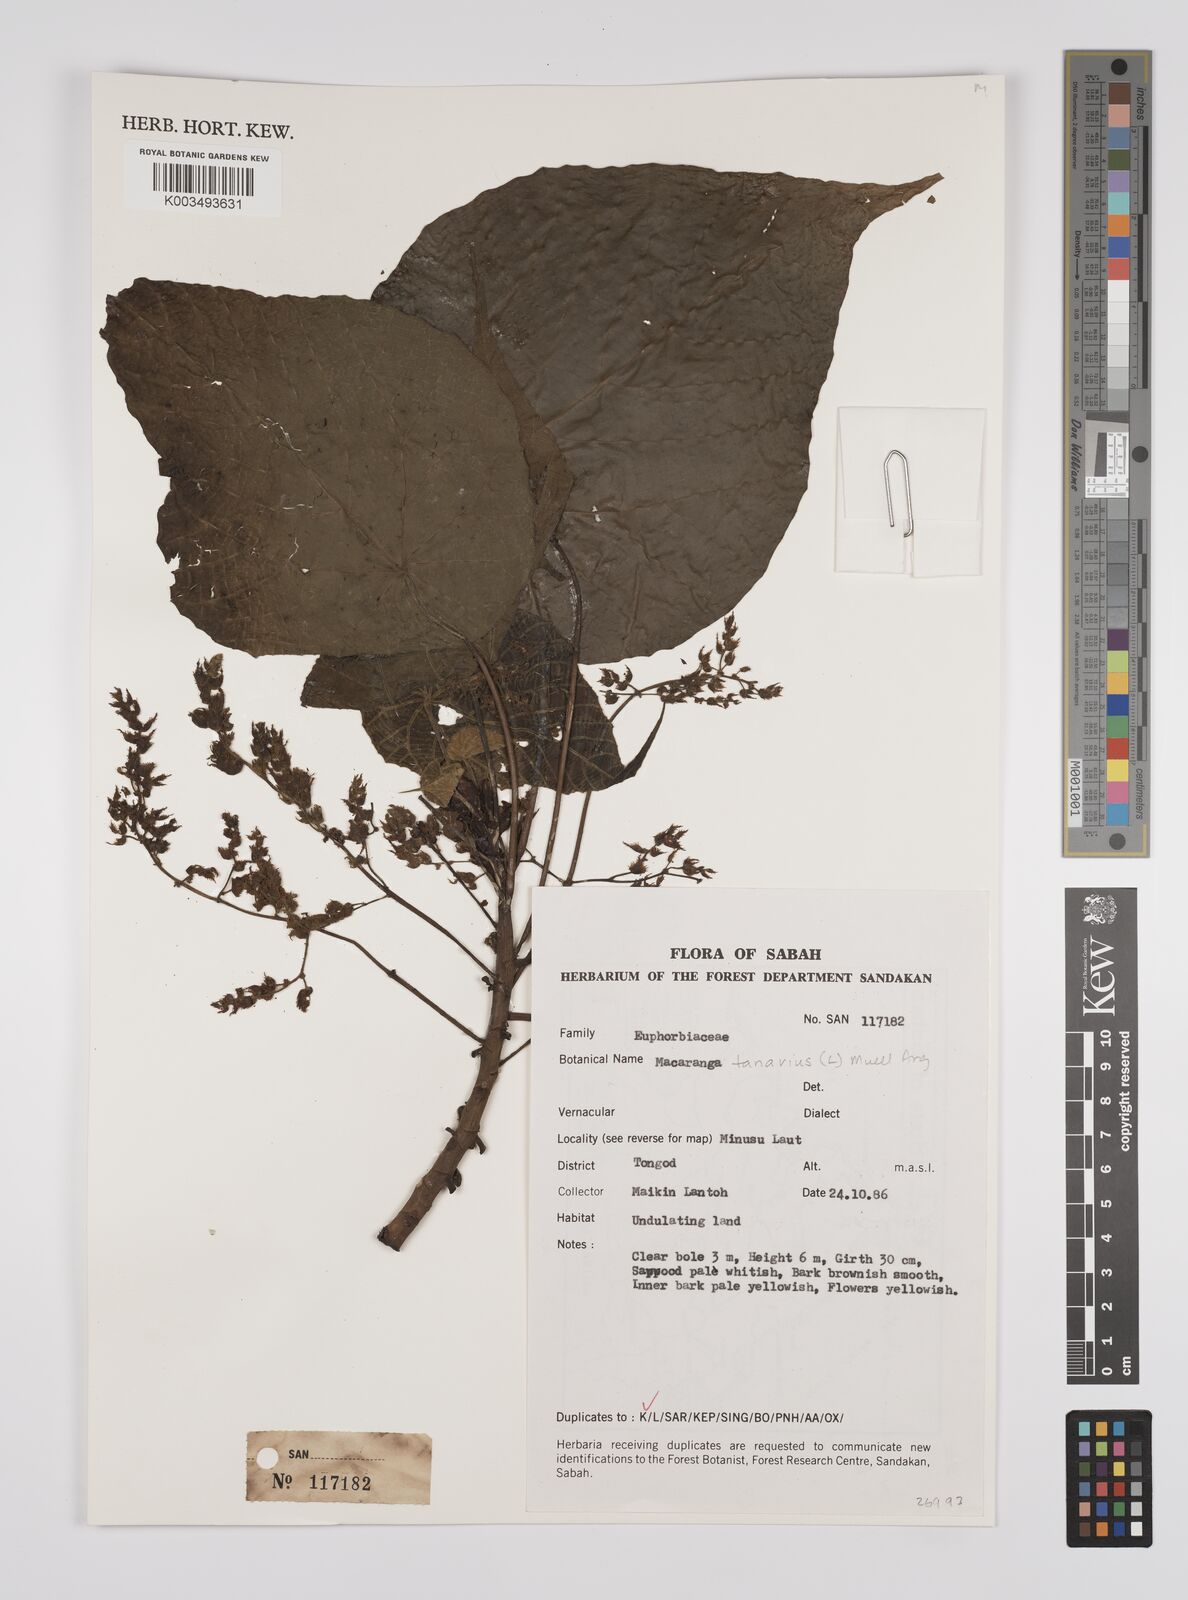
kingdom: Plantae
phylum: Tracheophyta
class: Magnoliopsida
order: Malpighiales
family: Euphorbiaceae
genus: Macaranga
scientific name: Macaranga tanarius
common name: Parasol leaf tree
